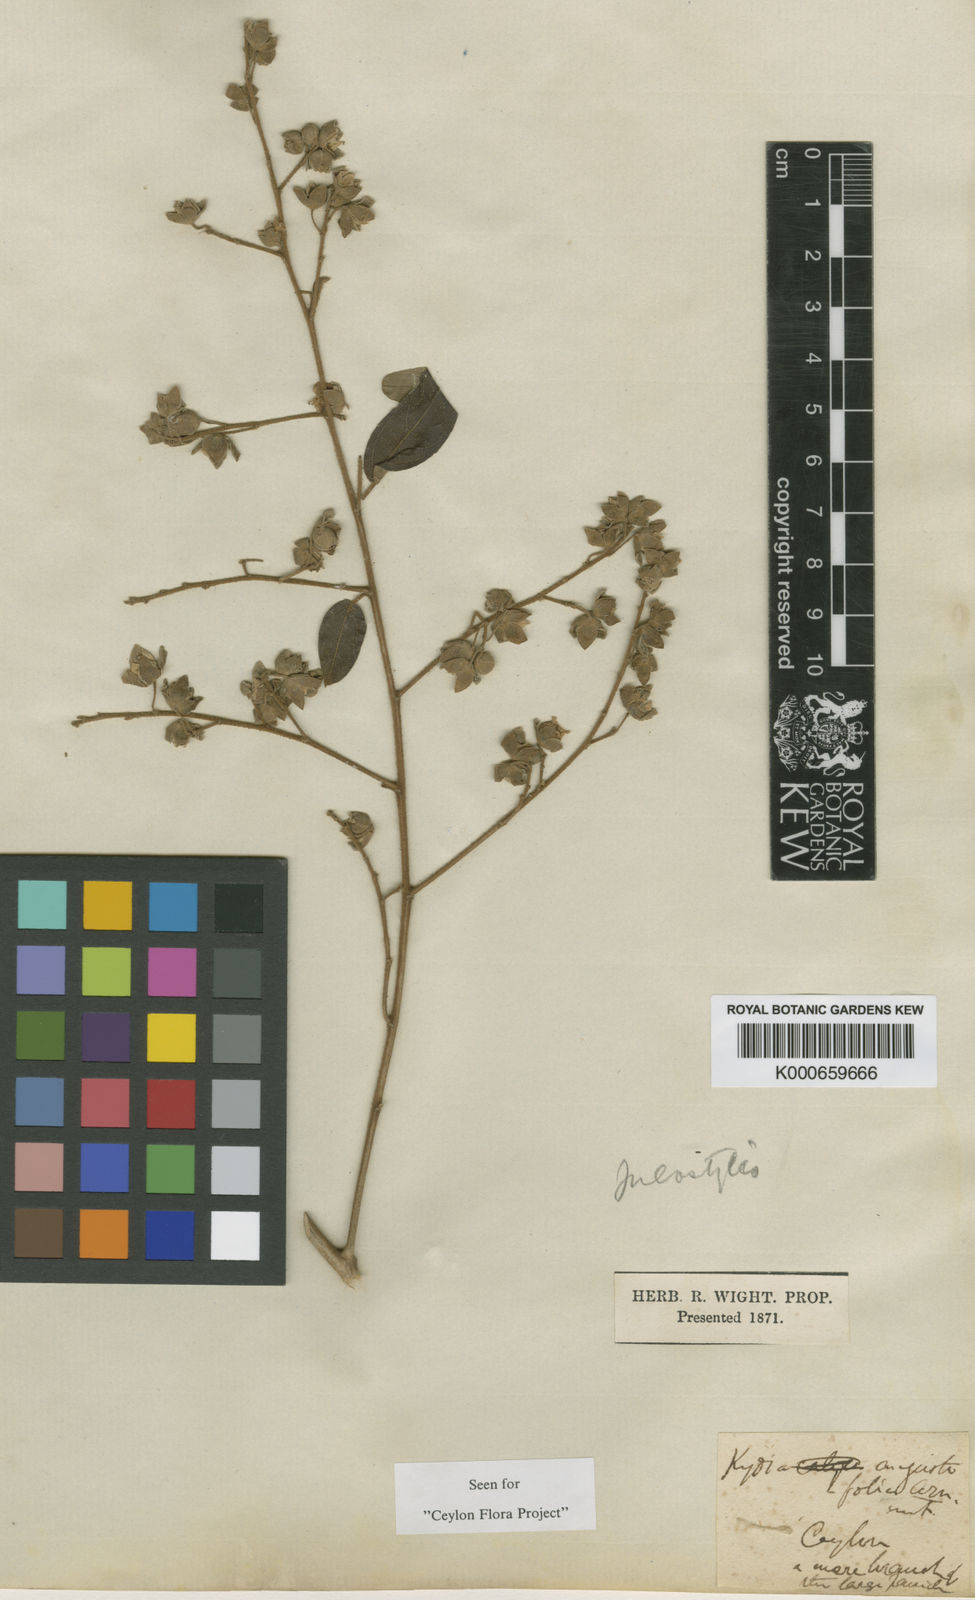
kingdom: Plantae
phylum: Tracheophyta
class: Magnoliopsida
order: Malvales
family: Malvaceae
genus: Julostylis
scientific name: Julostylis angustifolia
